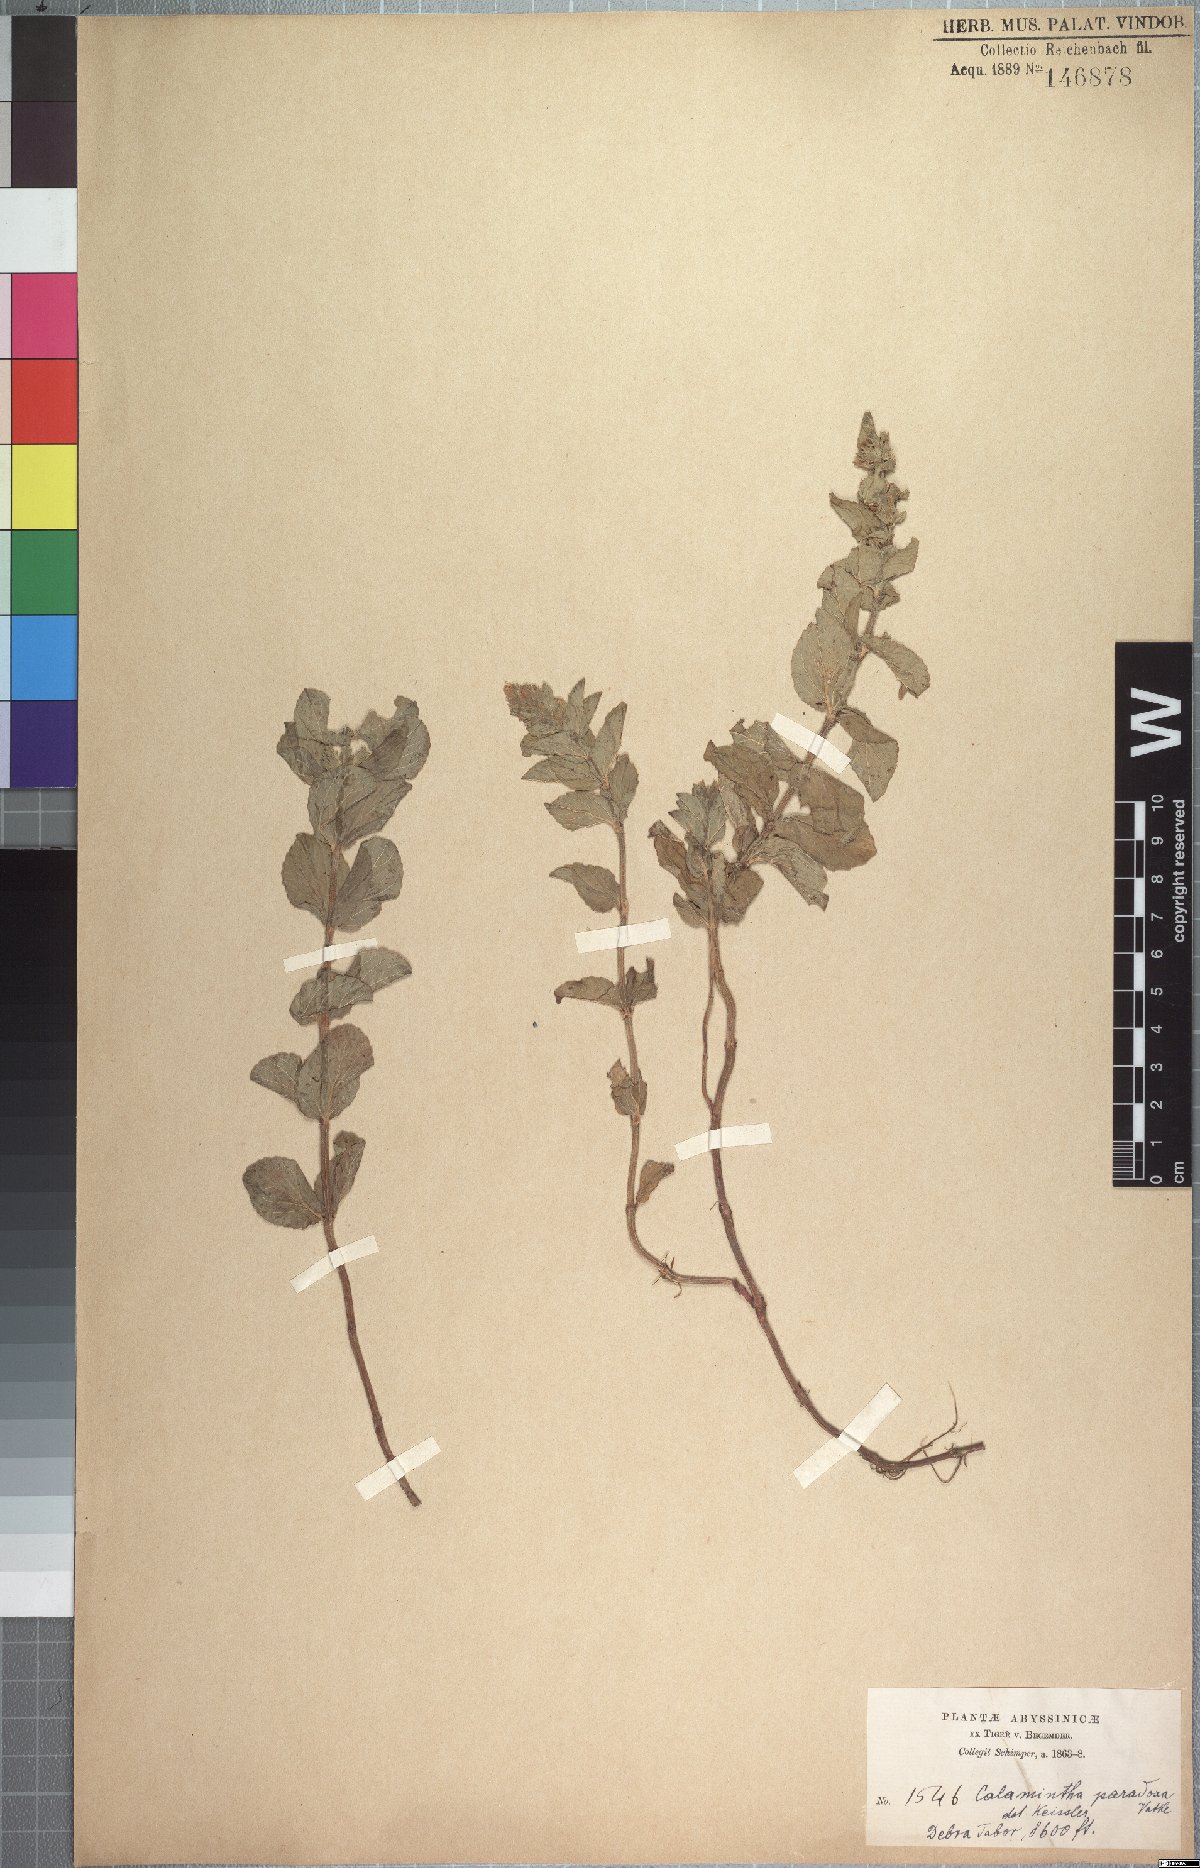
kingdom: Plantae
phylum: Tracheophyta
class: Magnoliopsida
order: Lamiales
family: Lamiaceae
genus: Clinopodium
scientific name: Clinopodium paradoxum
